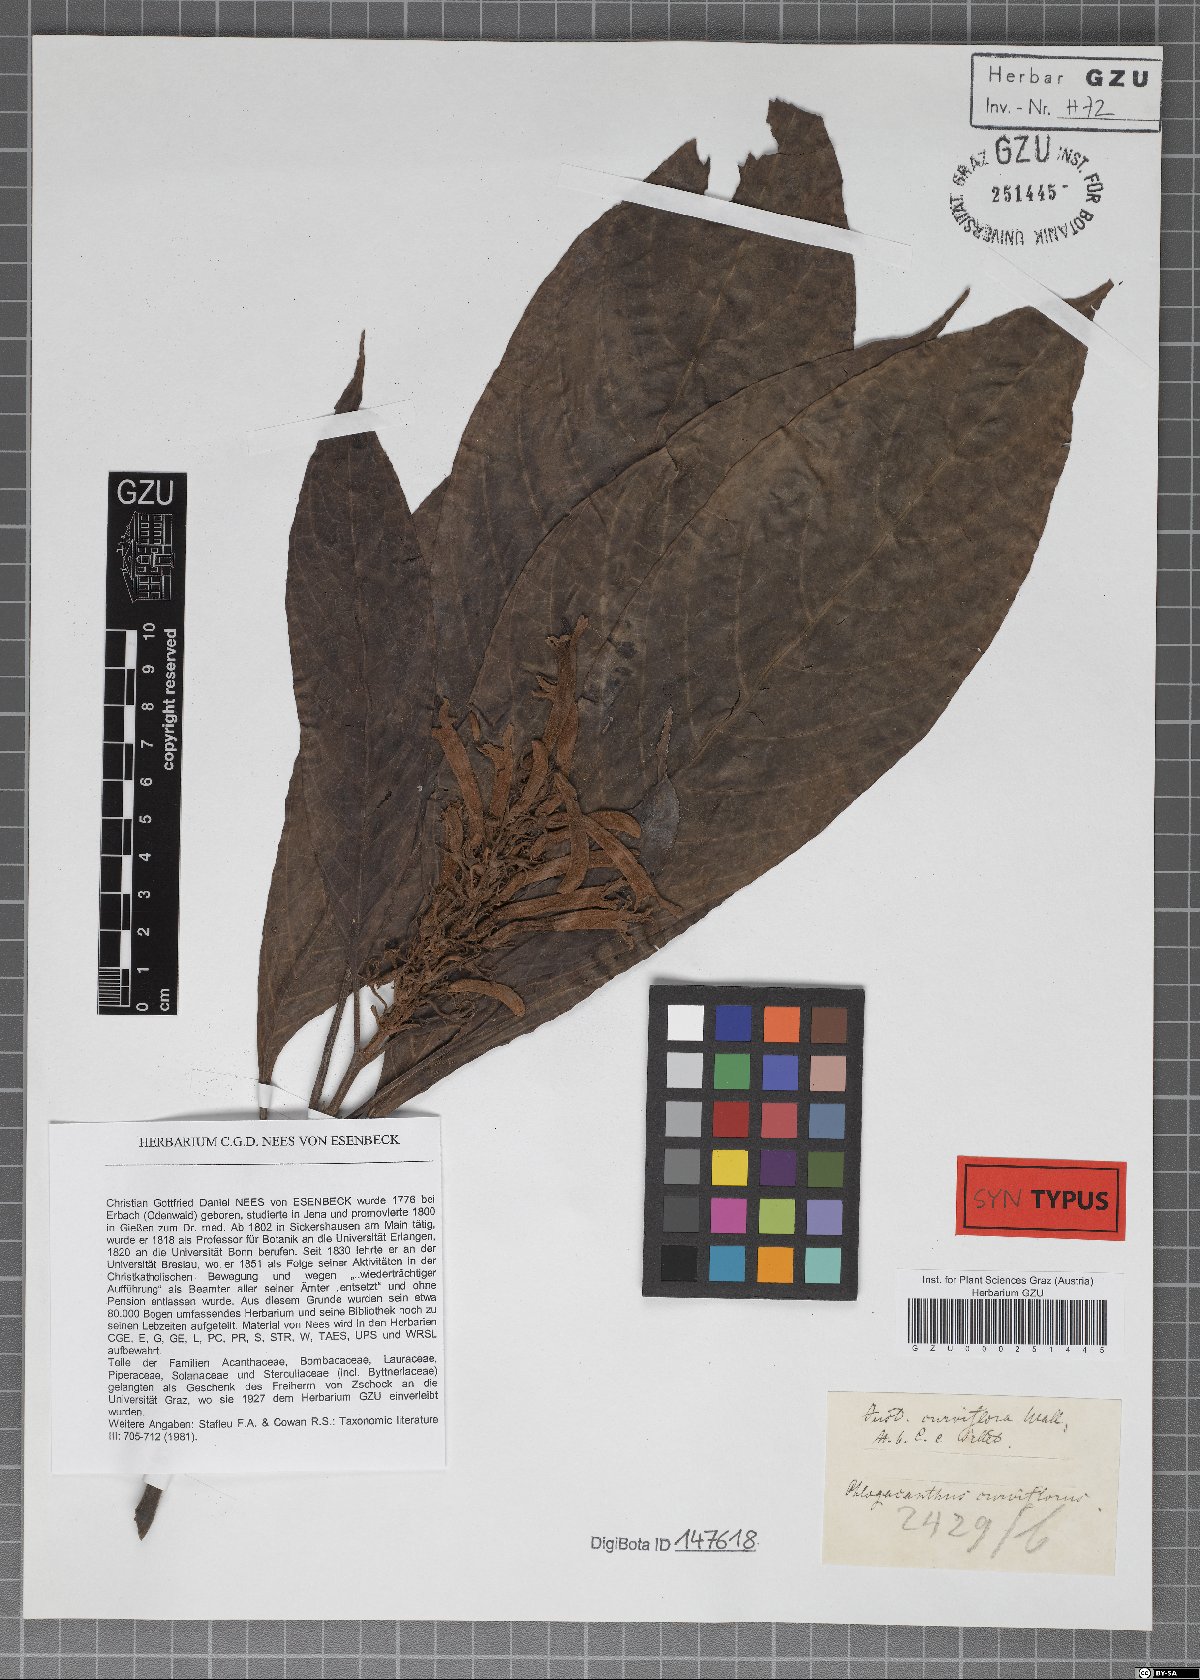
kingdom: Plantae
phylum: Tracheophyta
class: Magnoliopsida
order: Lamiales
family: Acanthaceae
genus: Justicia
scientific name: Justicia curviflora
